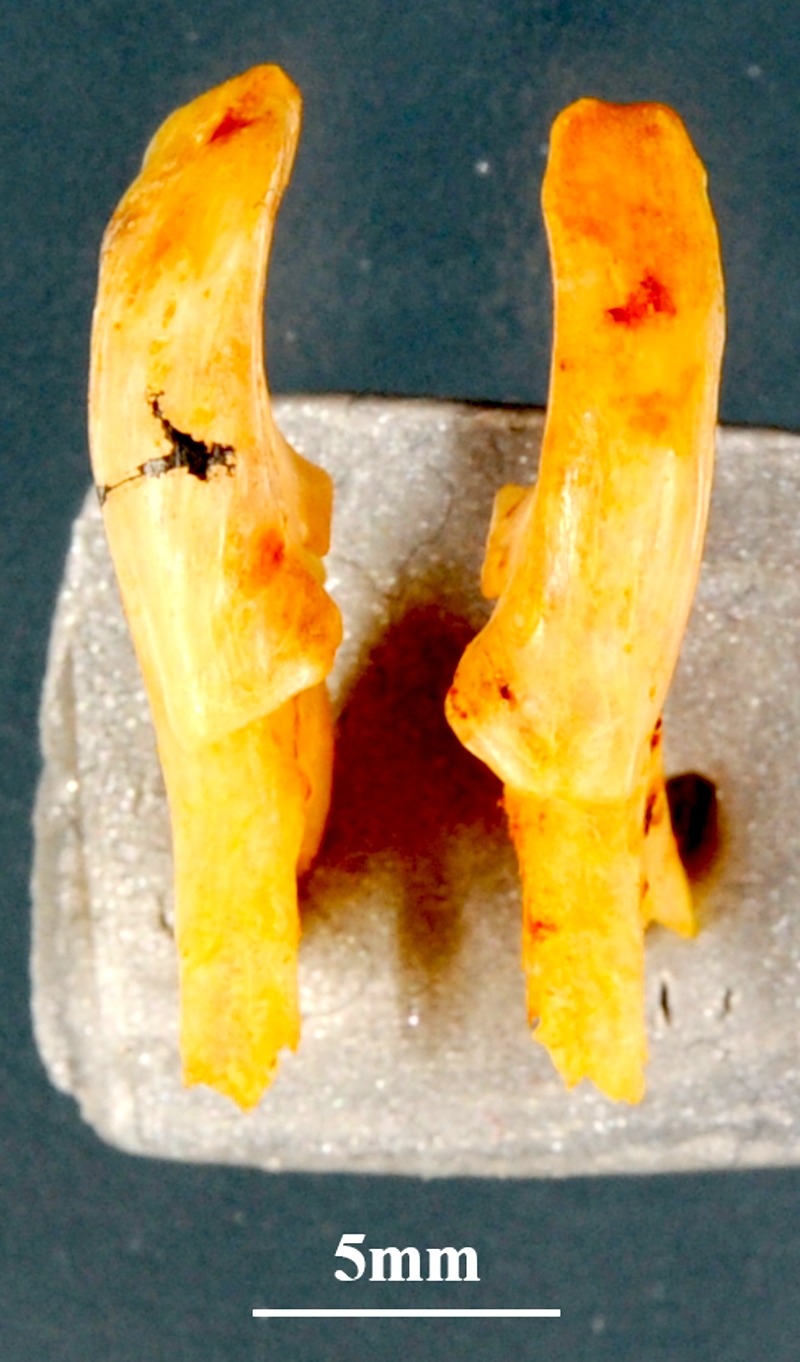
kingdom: Animalia
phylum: Chordata
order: Perciformes
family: Sparidae
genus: Sarpa
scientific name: Sarpa salpa
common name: Salema
